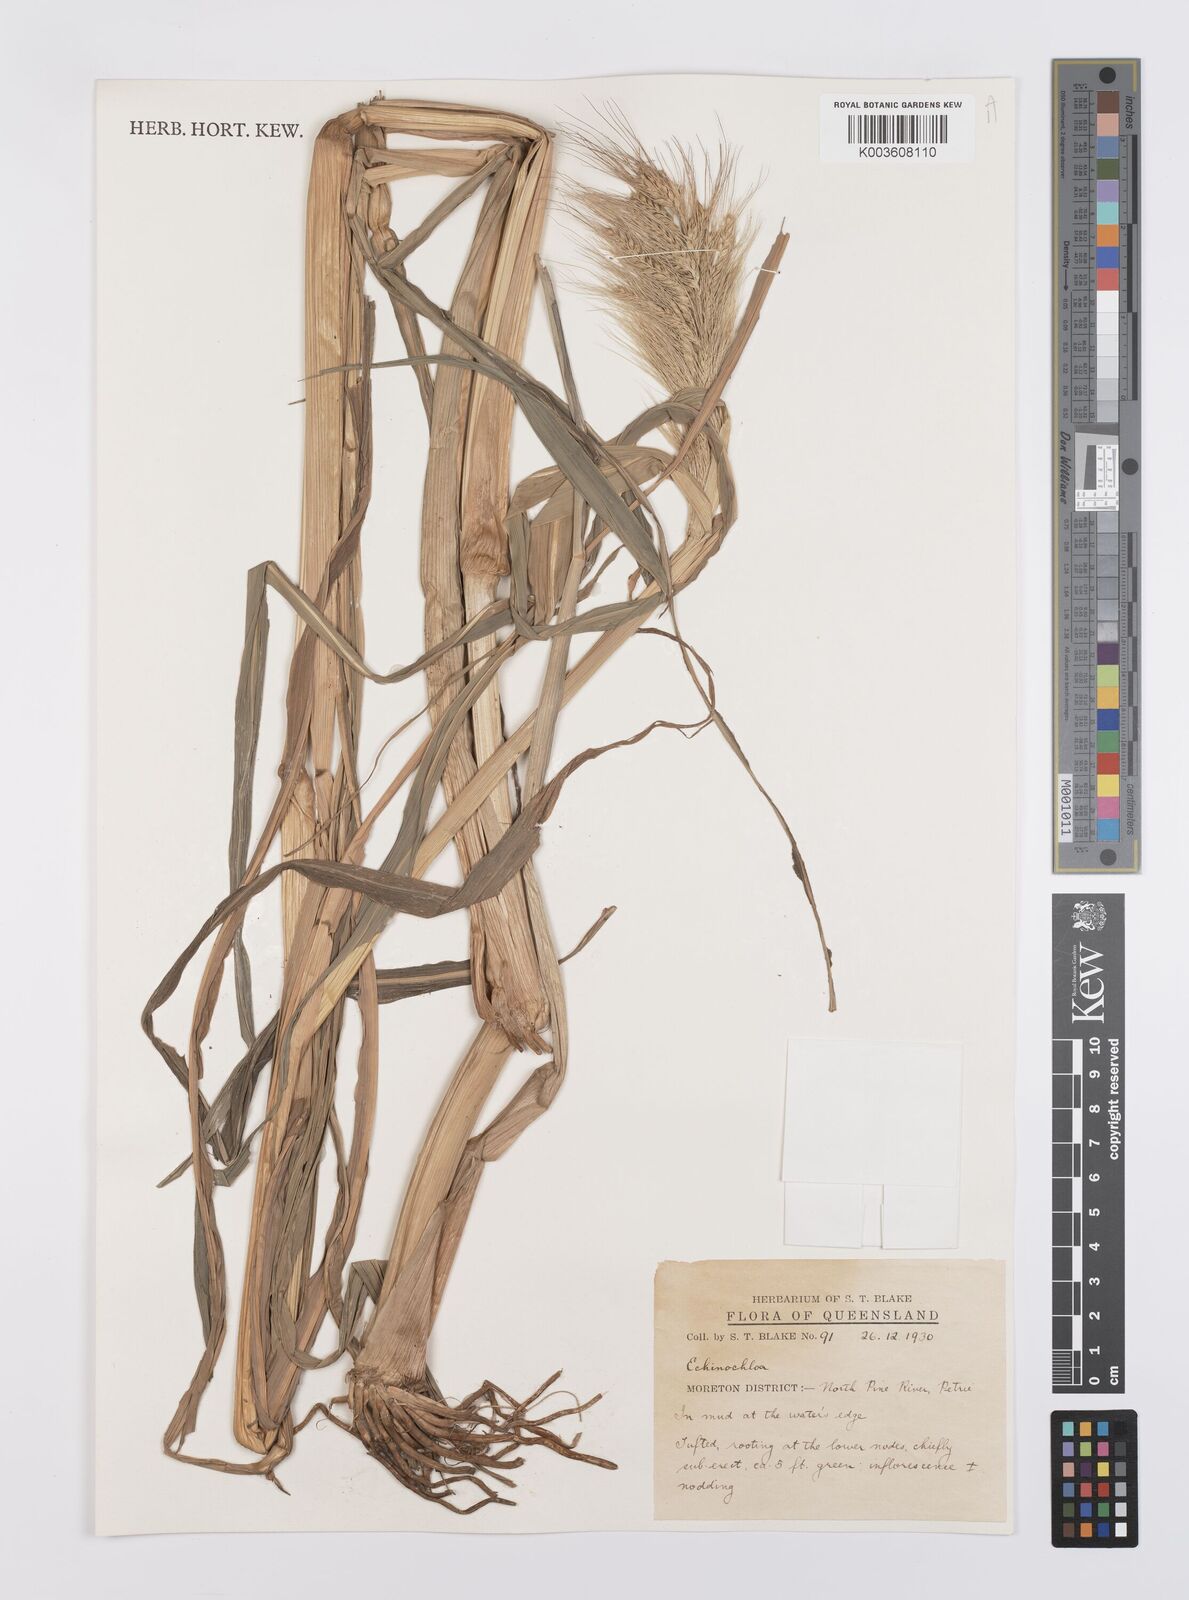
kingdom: Plantae
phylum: Tracheophyta
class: Liliopsida
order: Poales
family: Poaceae
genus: Echinochloa
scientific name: Echinochloa
